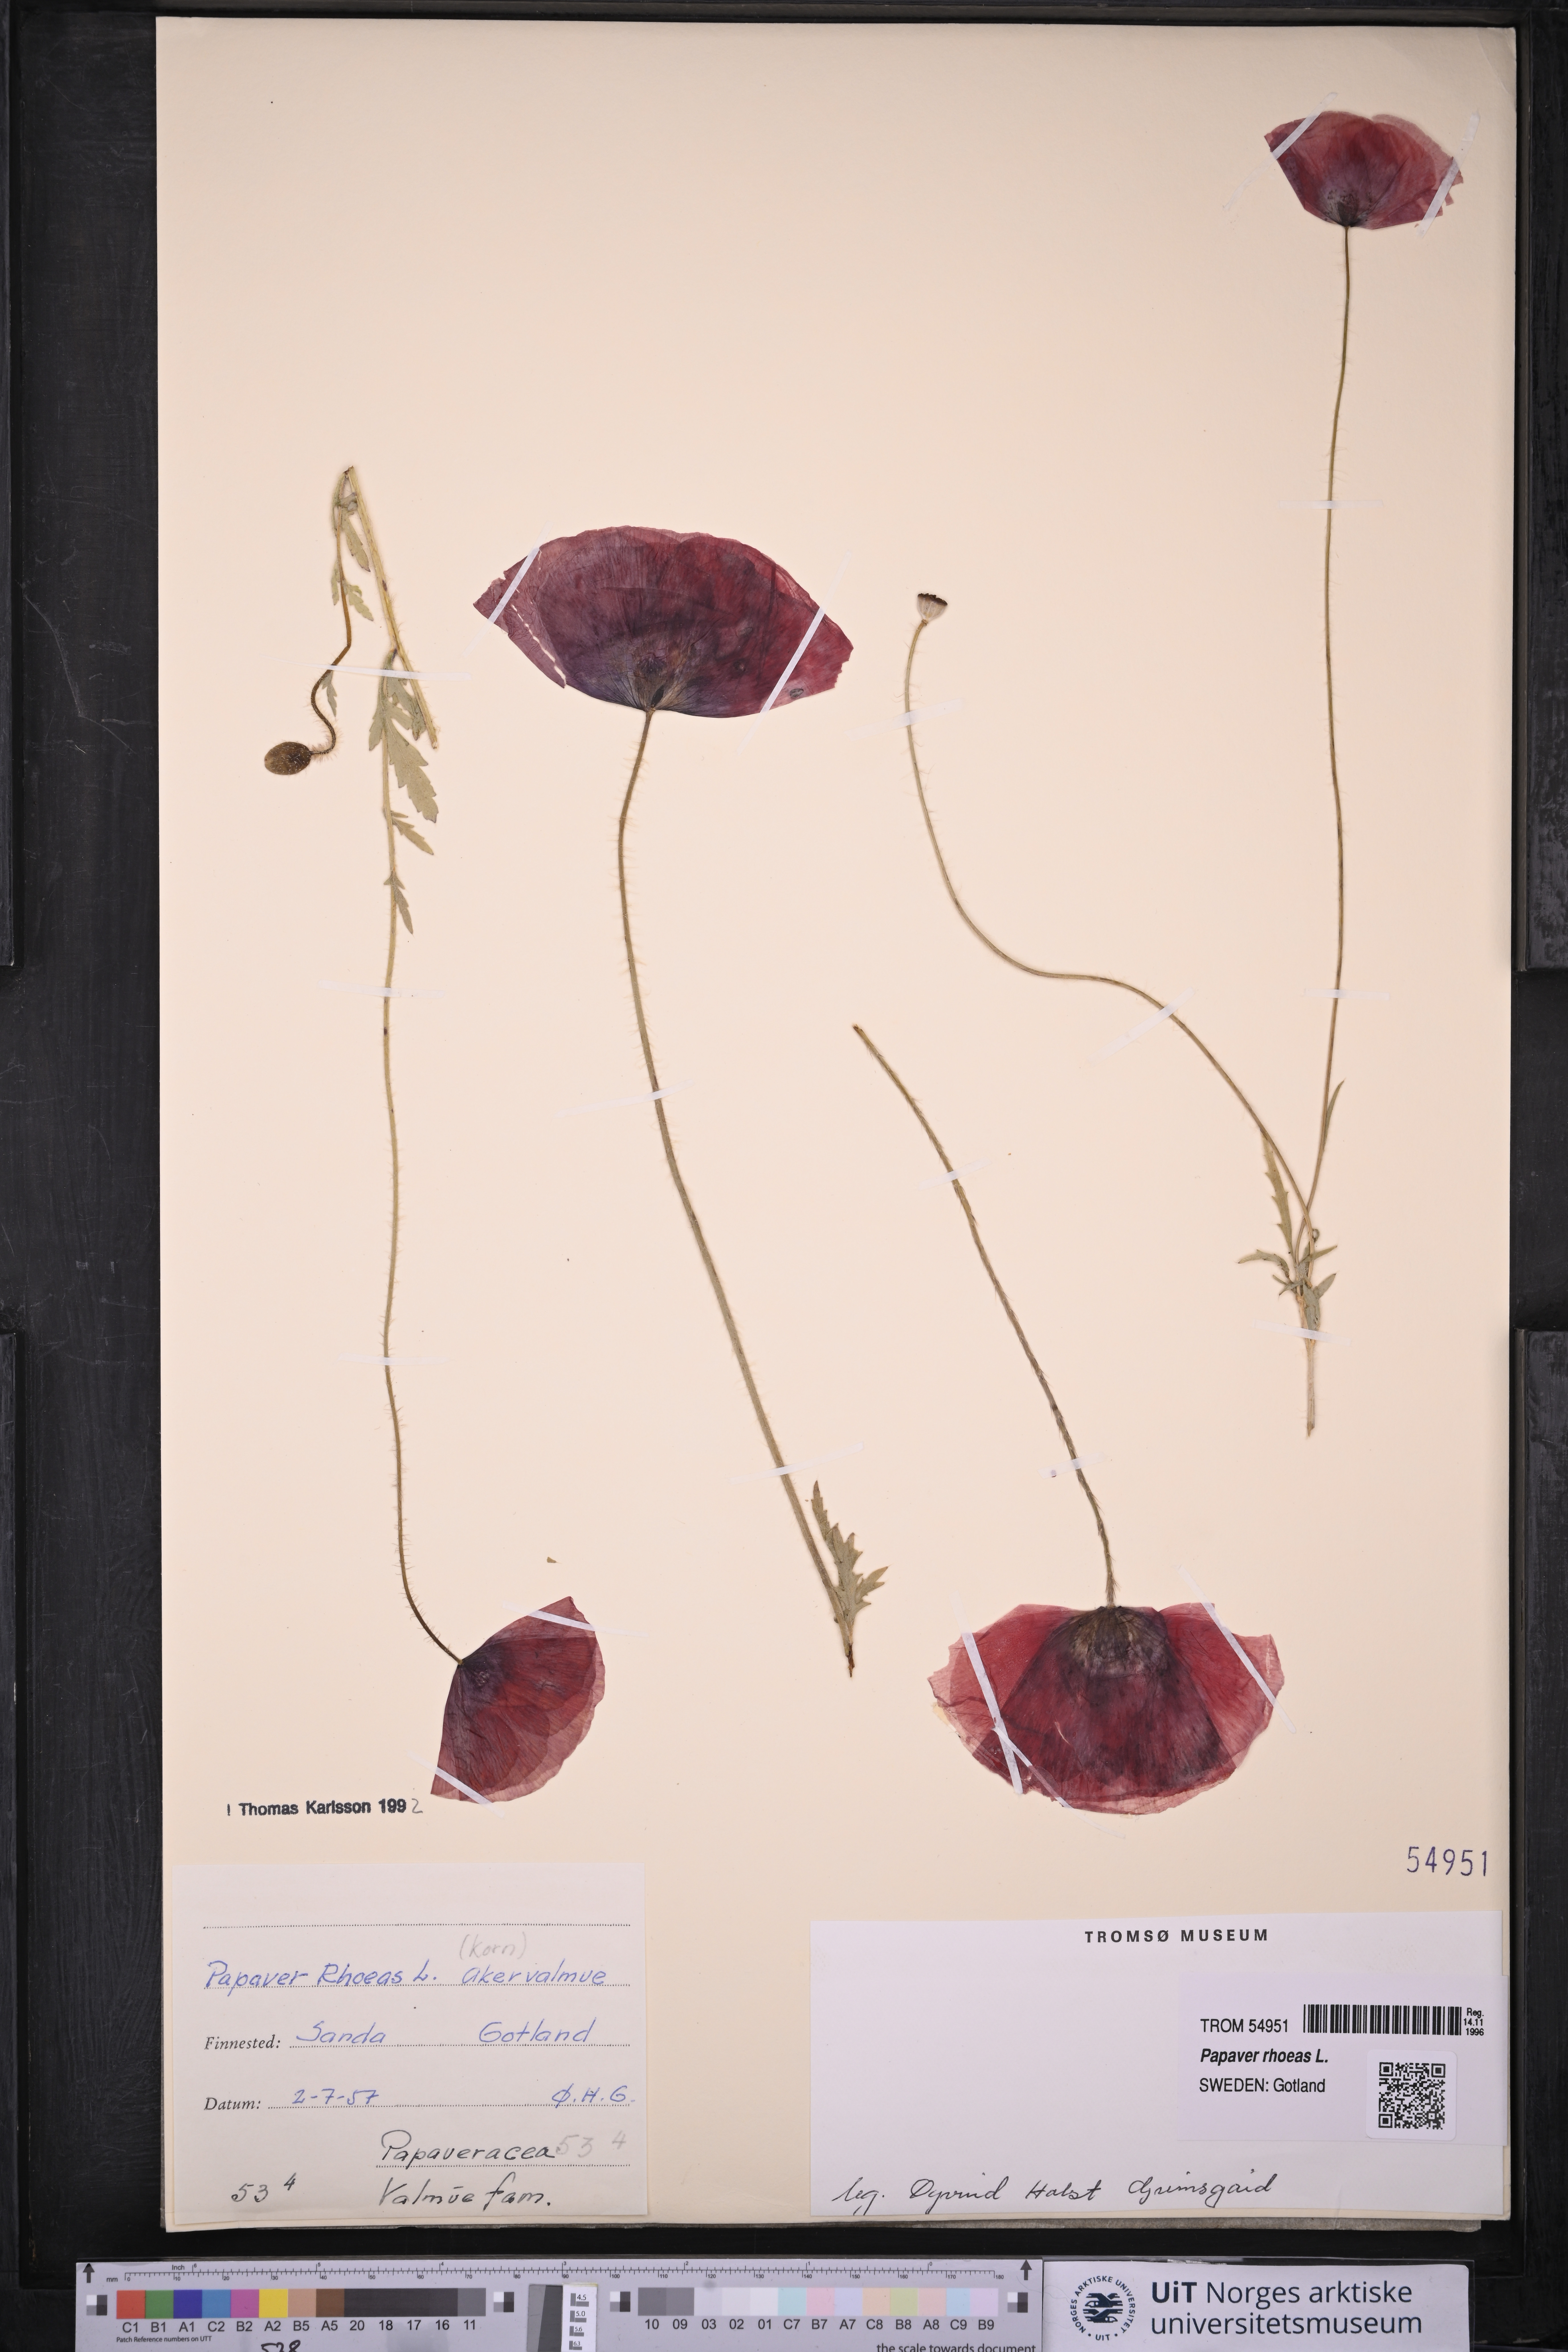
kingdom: Plantae
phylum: Tracheophyta
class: Magnoliopsida
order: Ranunculales
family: Papaveraceae
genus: Papaver
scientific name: Papaver rhoeas
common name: Corn poppy
